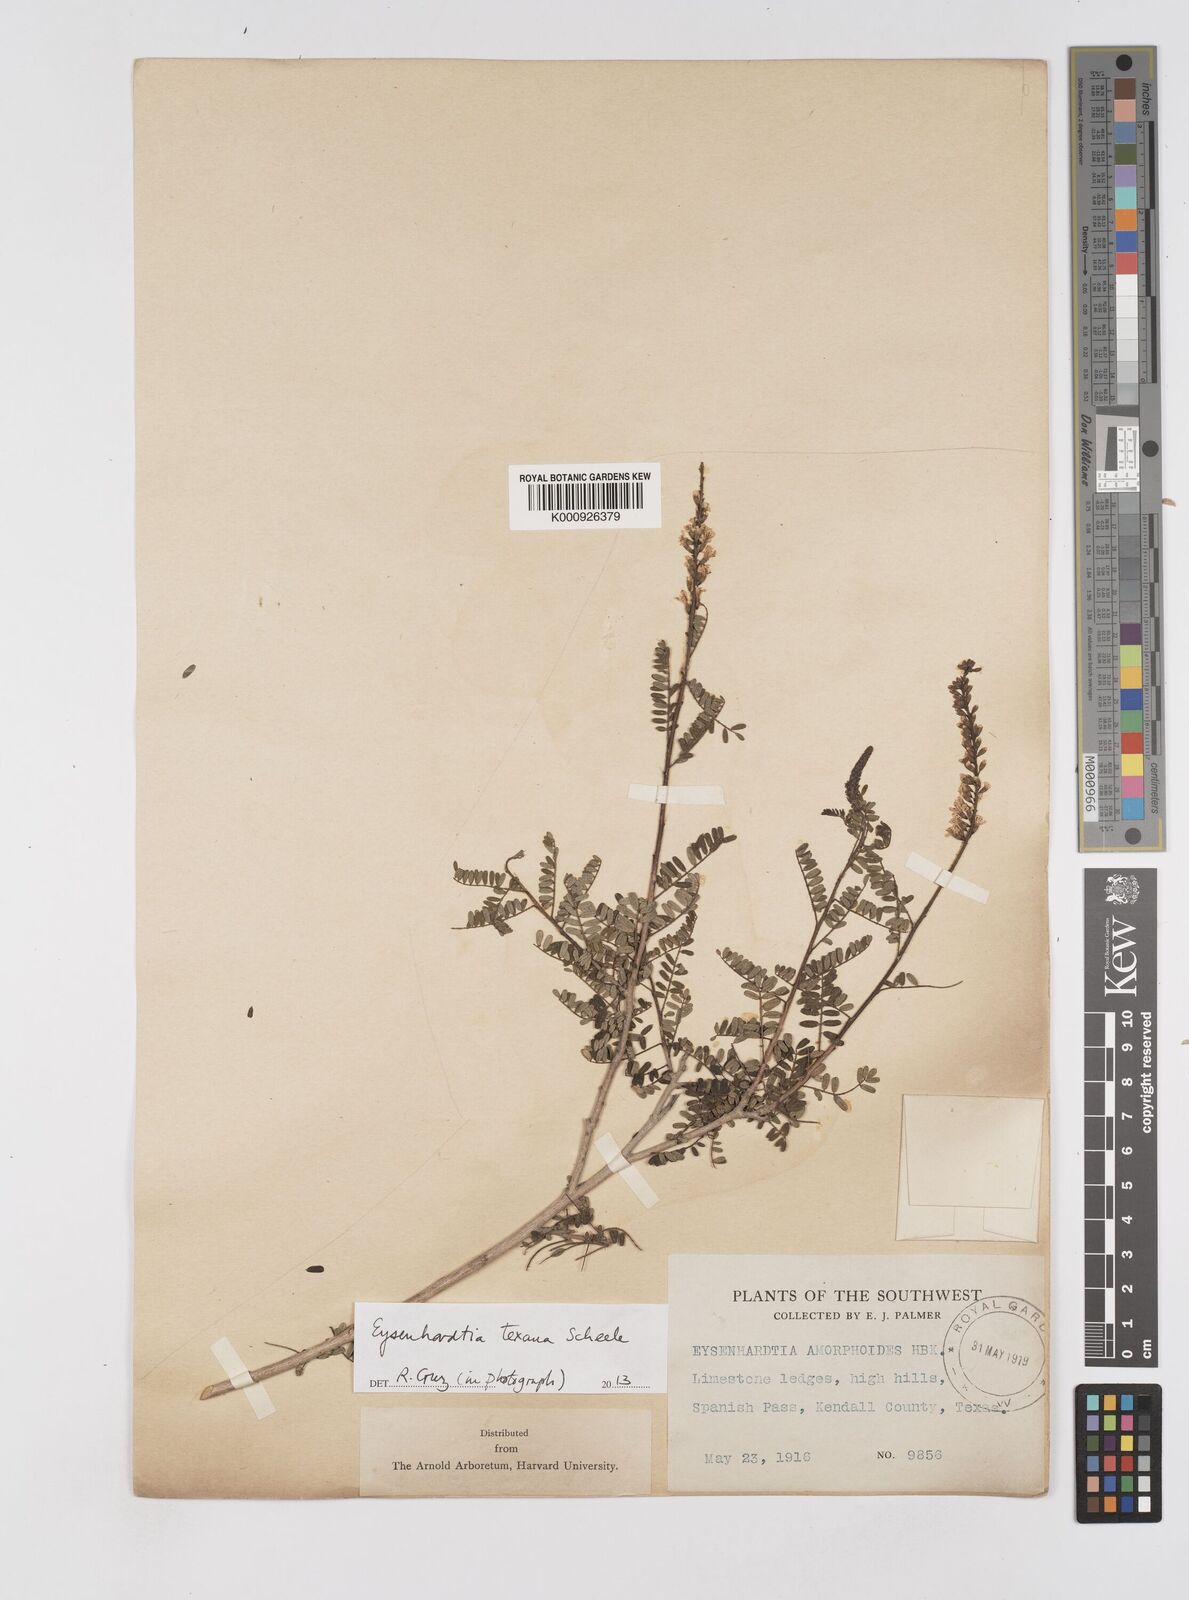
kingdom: Plantae
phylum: Tracheophyta
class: Magnoliopsida
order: Fabales
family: Fabaceae
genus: Eysenhardtia
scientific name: Eysenhardtia texana
